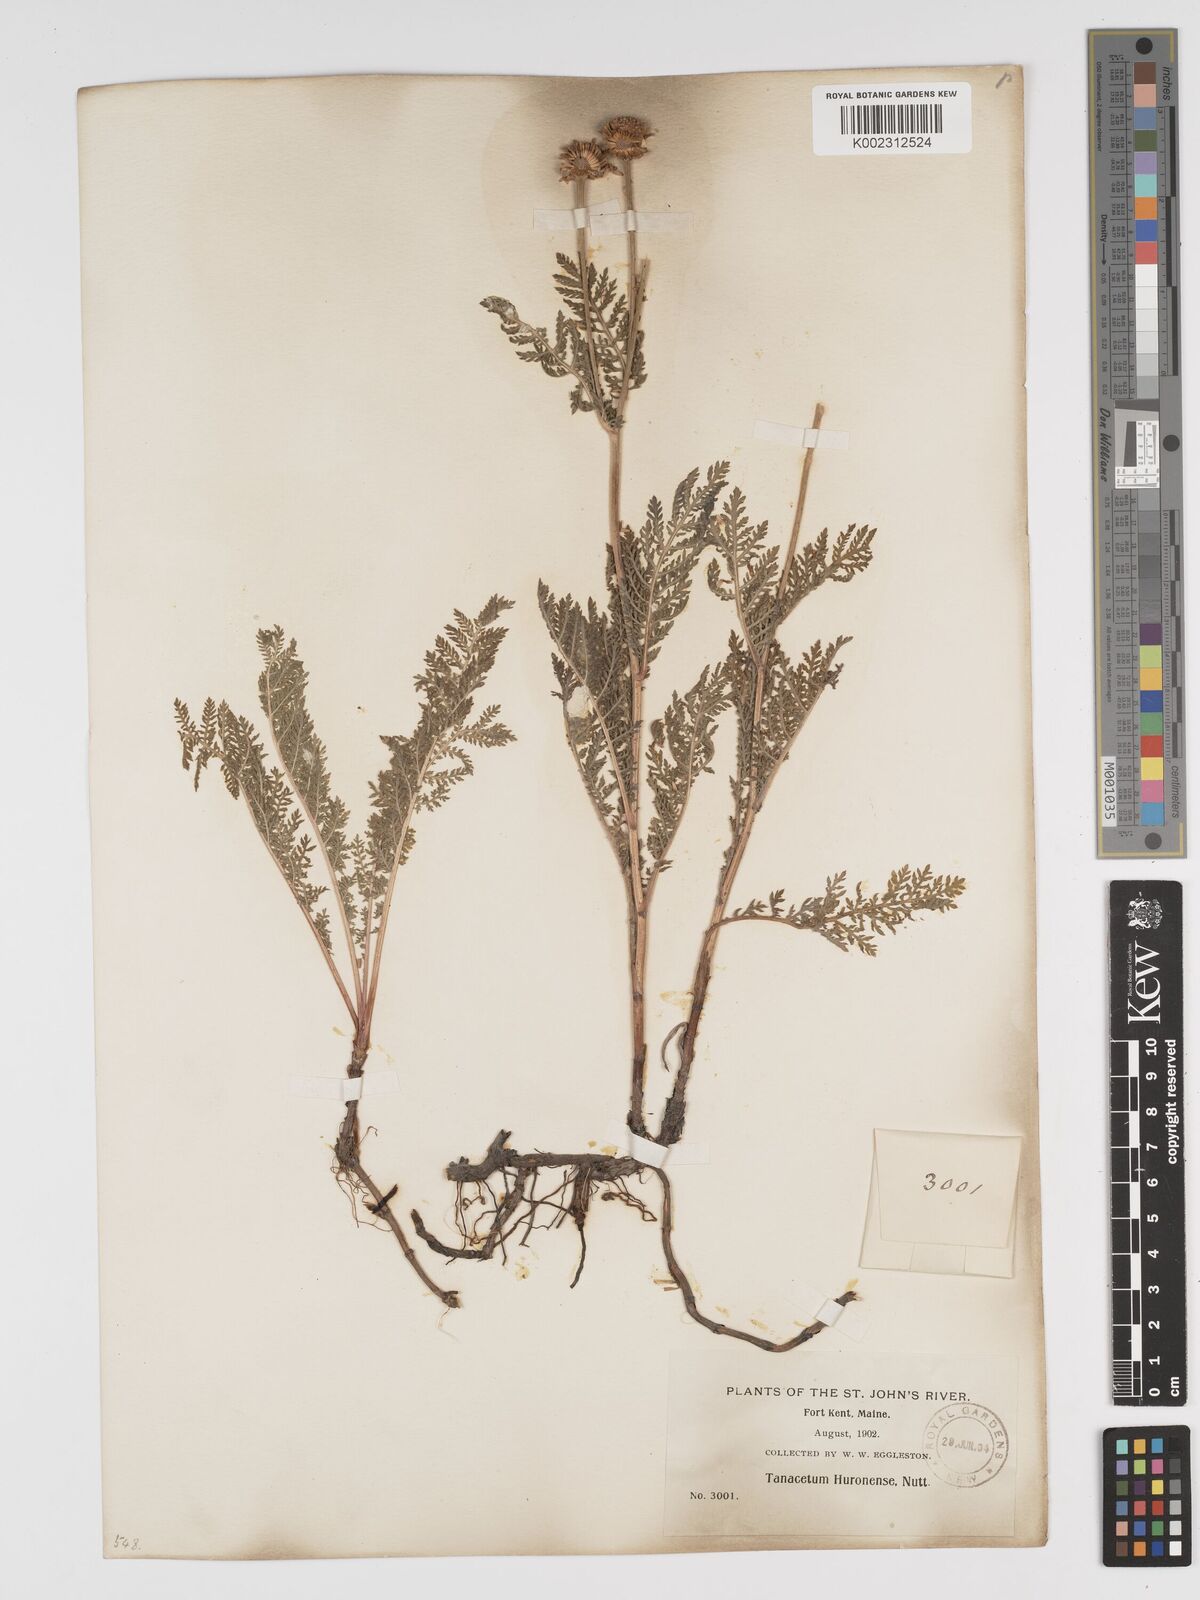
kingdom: Plantae
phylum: Tracheophyta
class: Magnoliopsida
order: Asterales
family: Asteraceae
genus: Tanacetum
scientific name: Tanacetum bipinnatum
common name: Dwarf tansy
